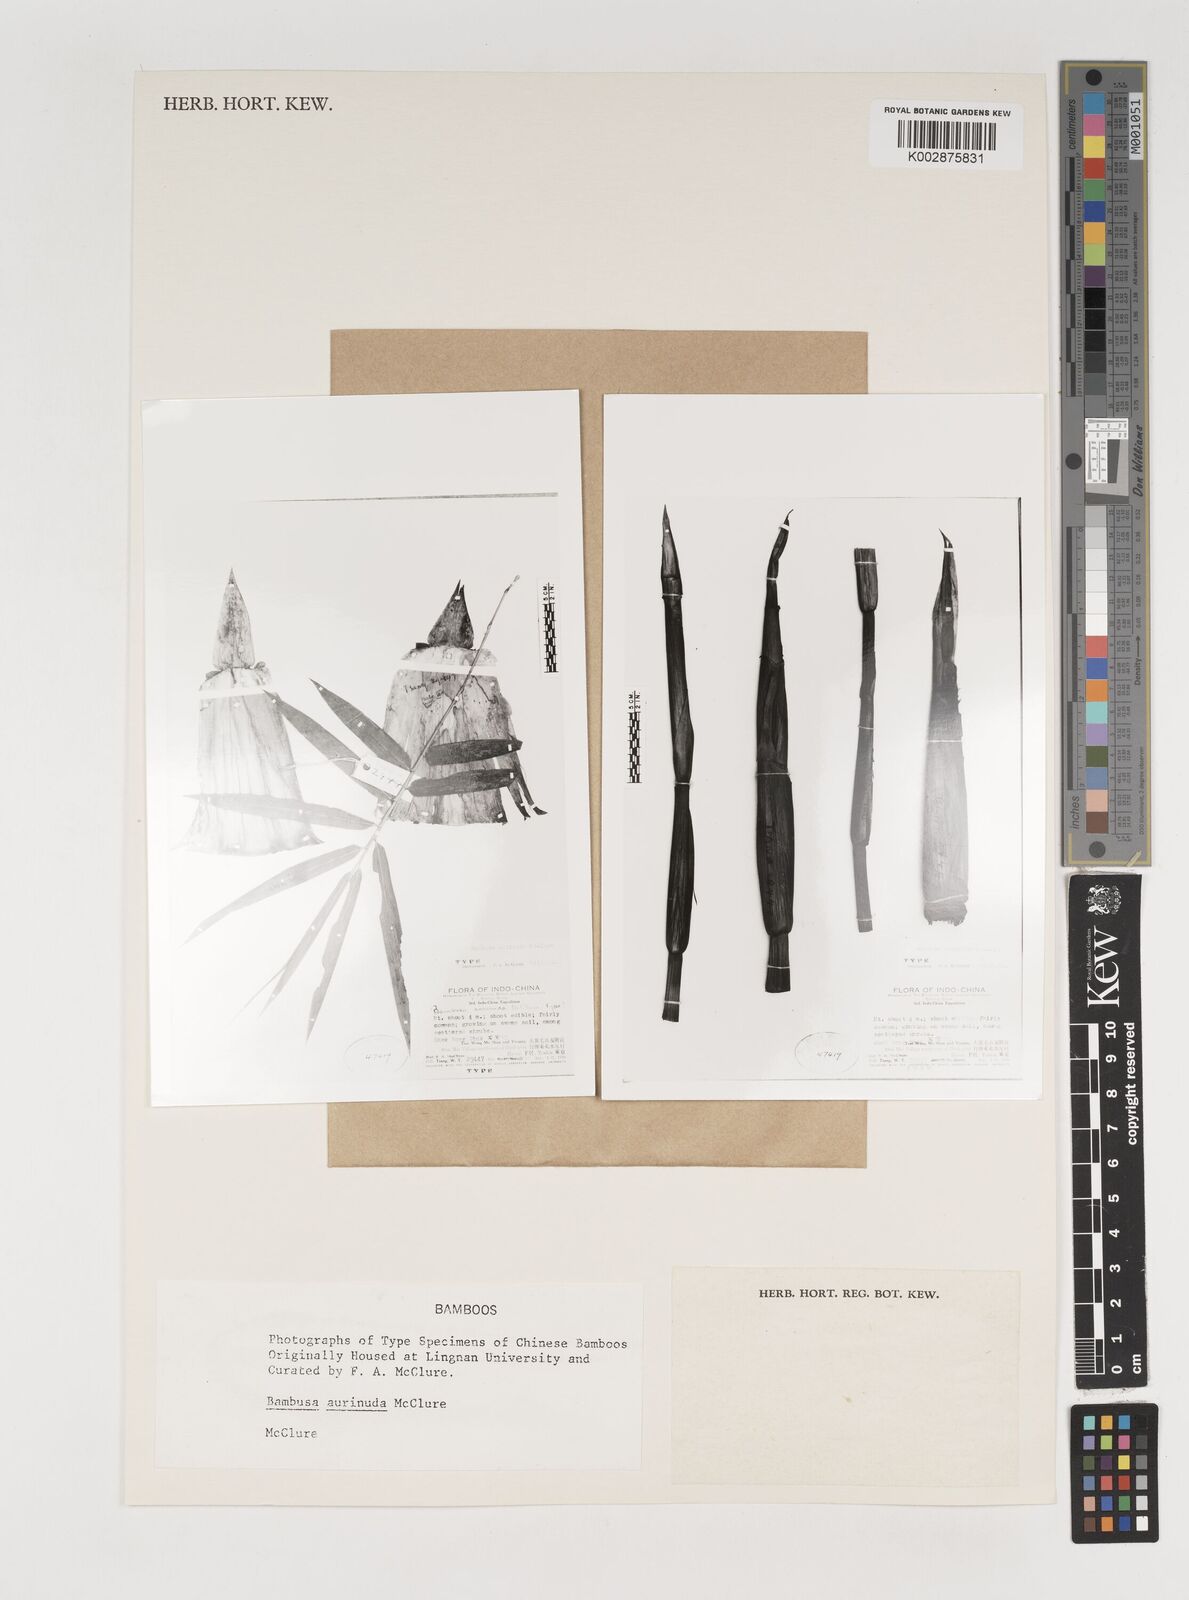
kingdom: Plantae
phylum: Tracheophyta
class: Liliopsida
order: Poales
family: Poaceae
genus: Bambusa
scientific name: Bambusa aurinuda
